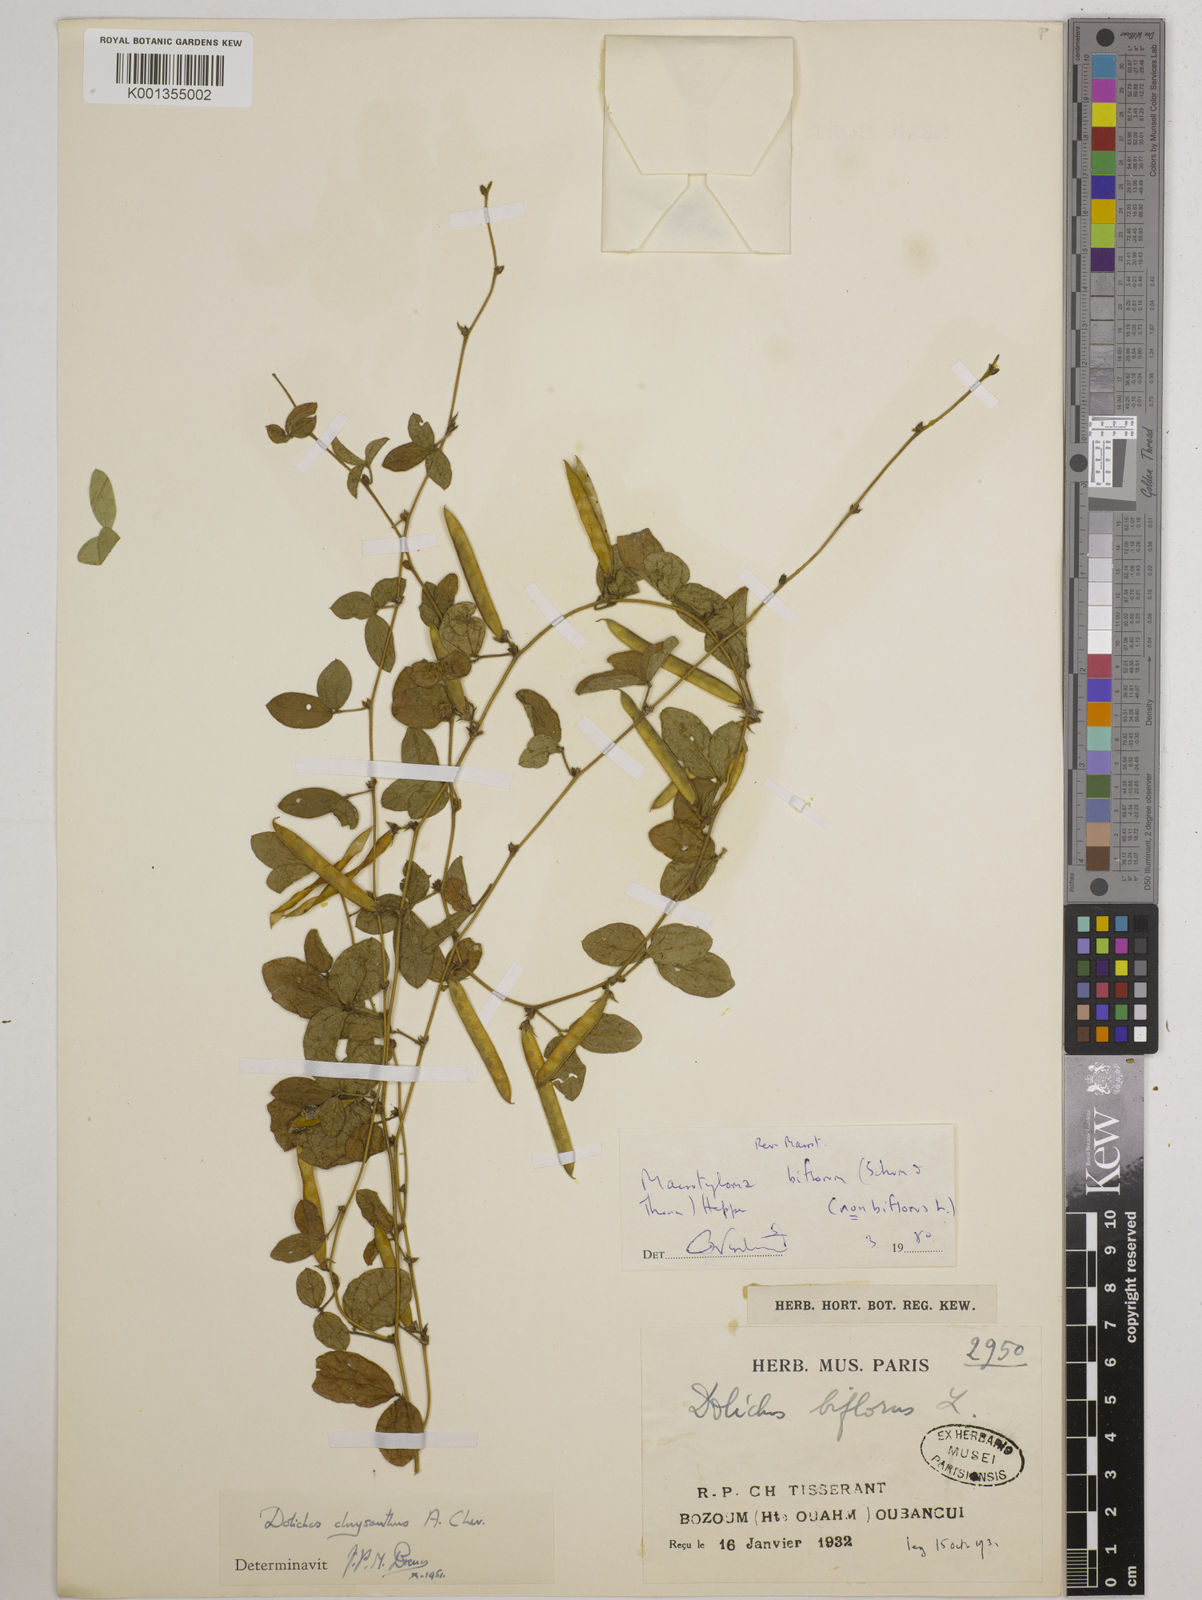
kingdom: Plantae
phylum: Tracheophyta
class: Magnoliopsida
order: Fabales
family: Fabaceae
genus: Macrotyloma
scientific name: Macrotyloma biflorum
